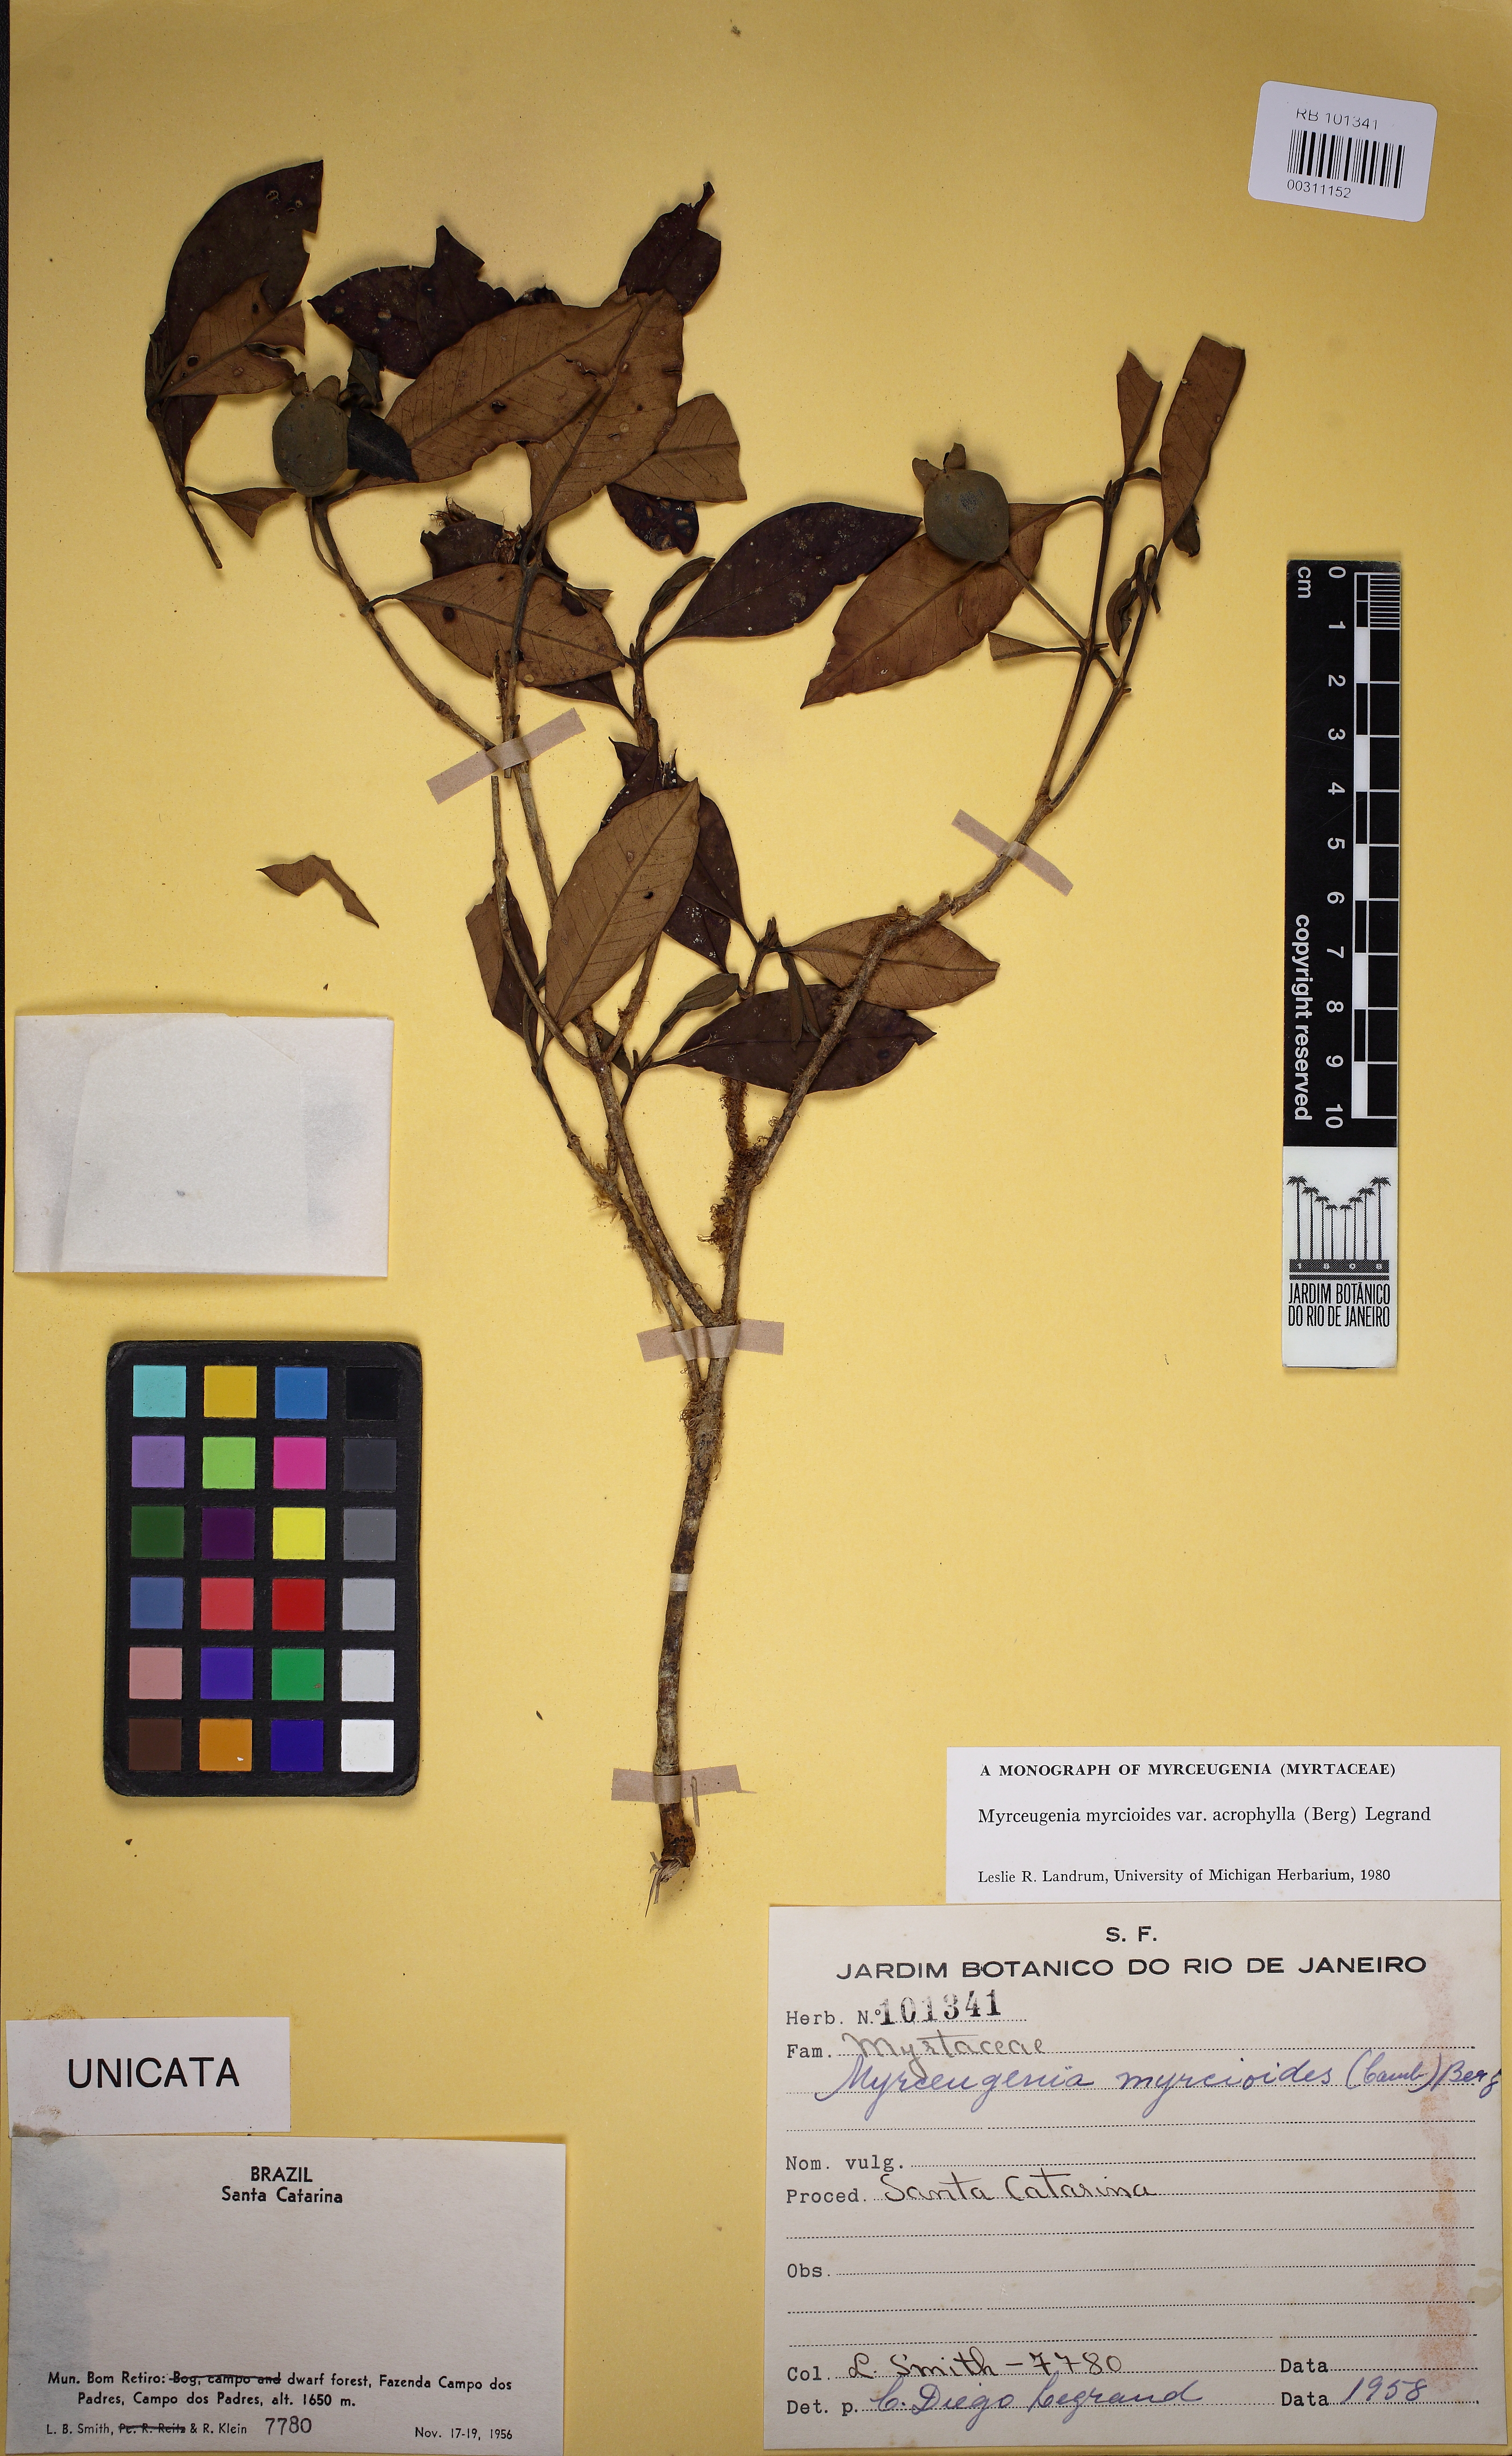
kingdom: Plantae
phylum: Tracheophyta
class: Magnoliopsida
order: Myrtales
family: Myrtaceae
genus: Myrceugenia
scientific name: Myrceugenia myrcioides
